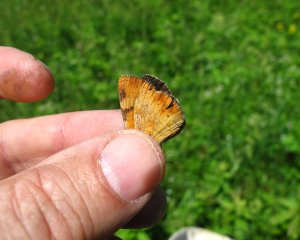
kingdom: Animalia
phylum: Arthropoda
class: Insecta
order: Lepidoptera
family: Nymphalidae
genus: Phyciodes
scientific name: Phyciodes tharos
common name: Northern Crescent
